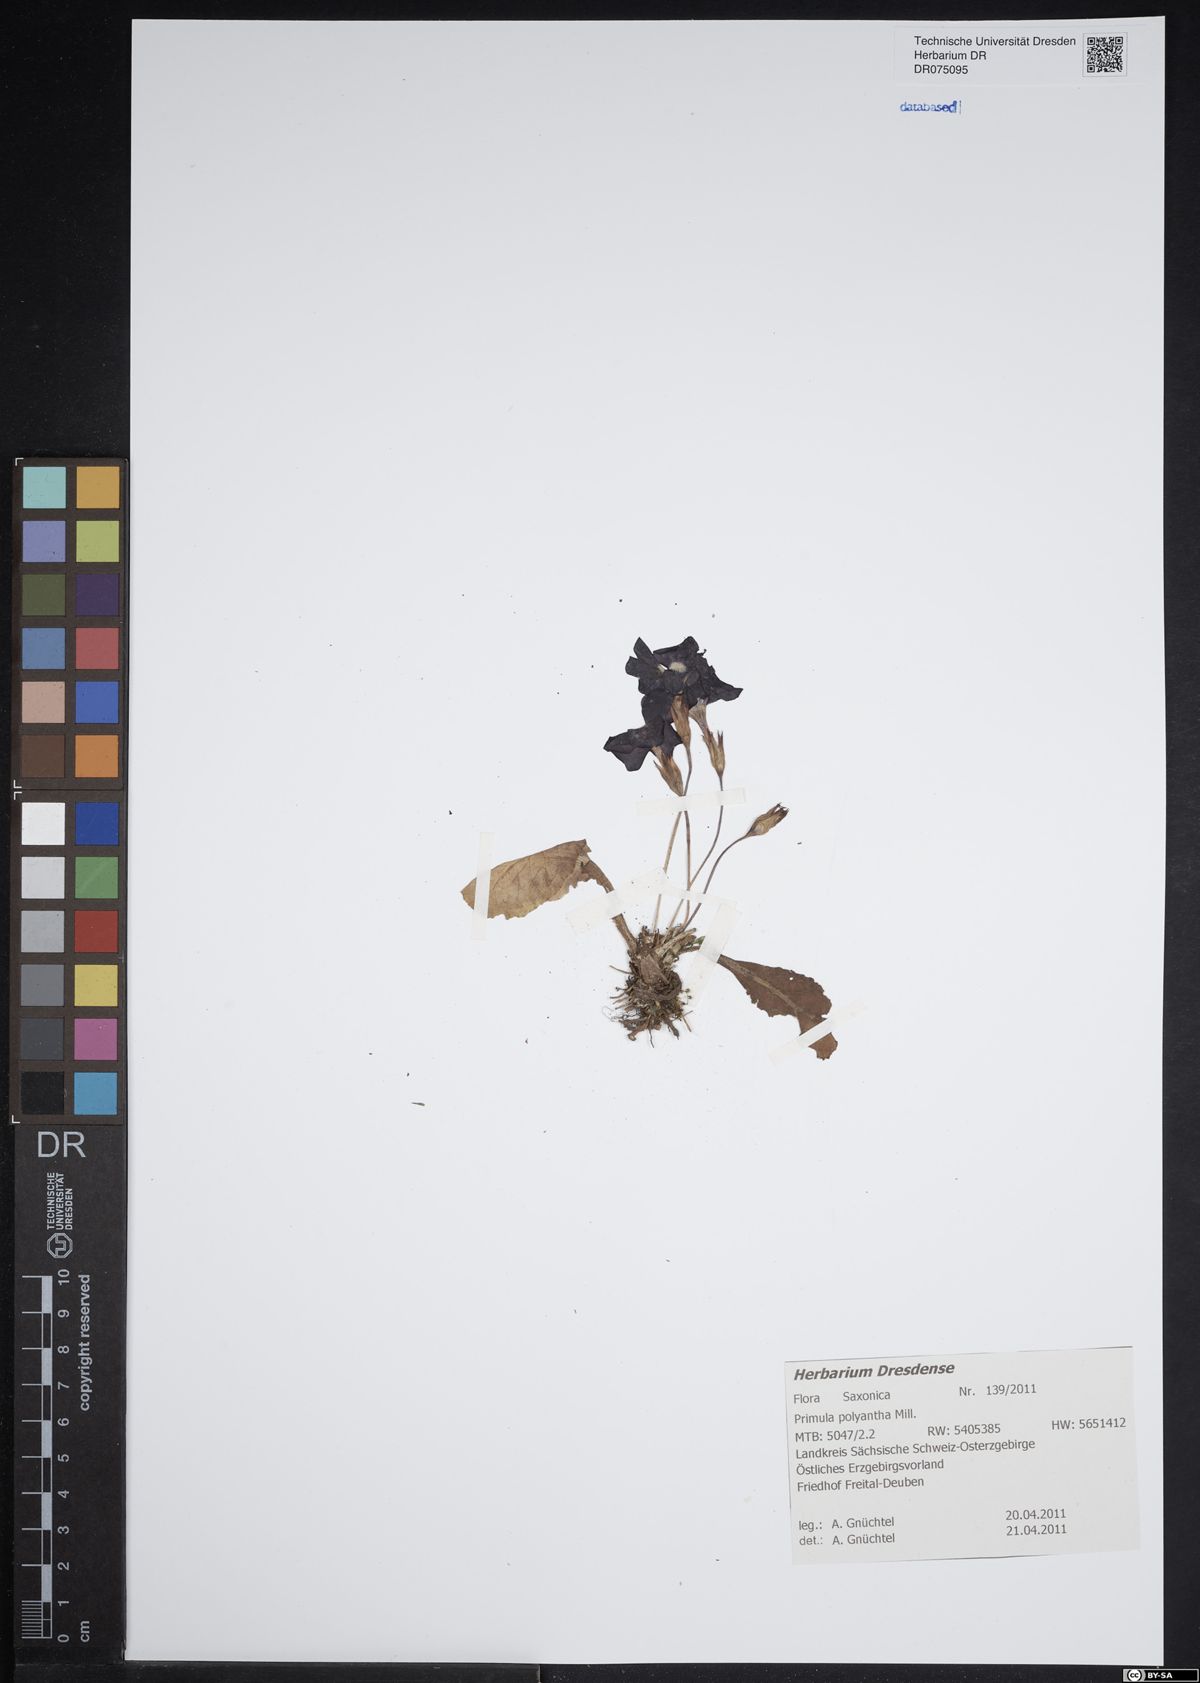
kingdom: Plantae
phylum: Tracheophyta
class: Magnoliopsida
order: Ericales
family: Primulaceae
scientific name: Primulaceae
